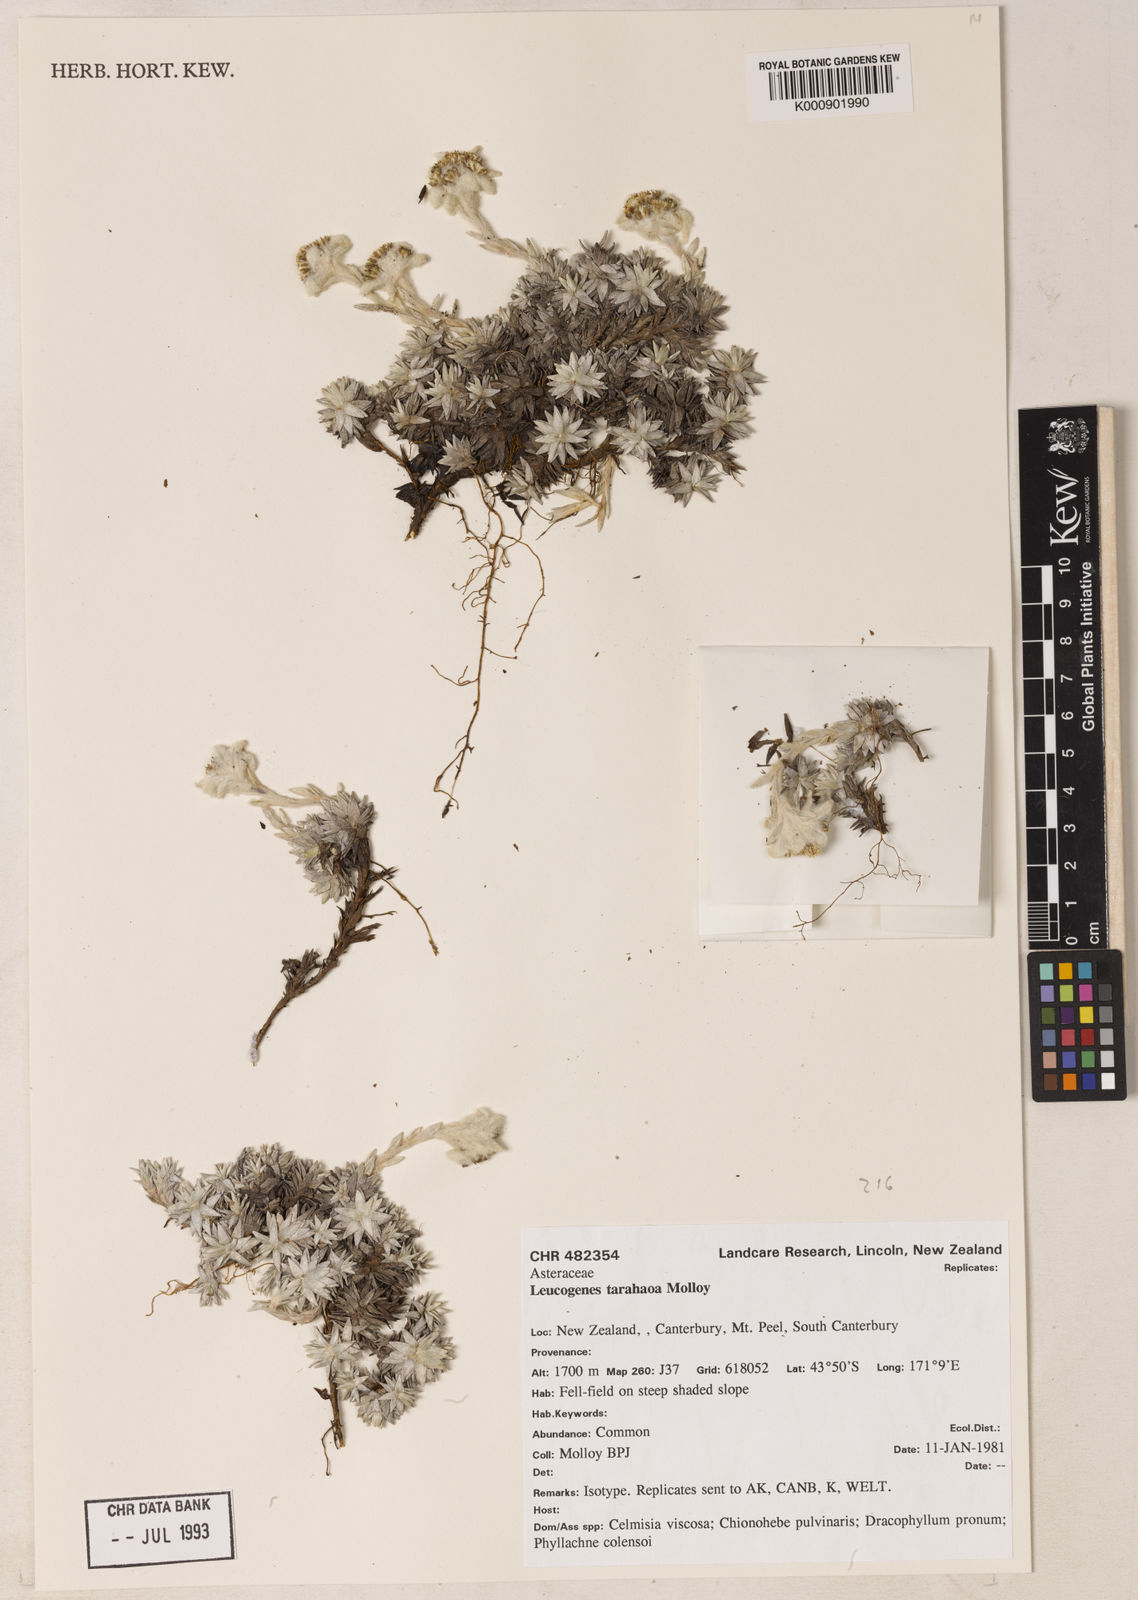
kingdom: Plantae
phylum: Tracheophyta
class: Magnoliopsida
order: Asterales
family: Asteraceae
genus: Leucogenes
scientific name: Leucogenes tarahaoa
